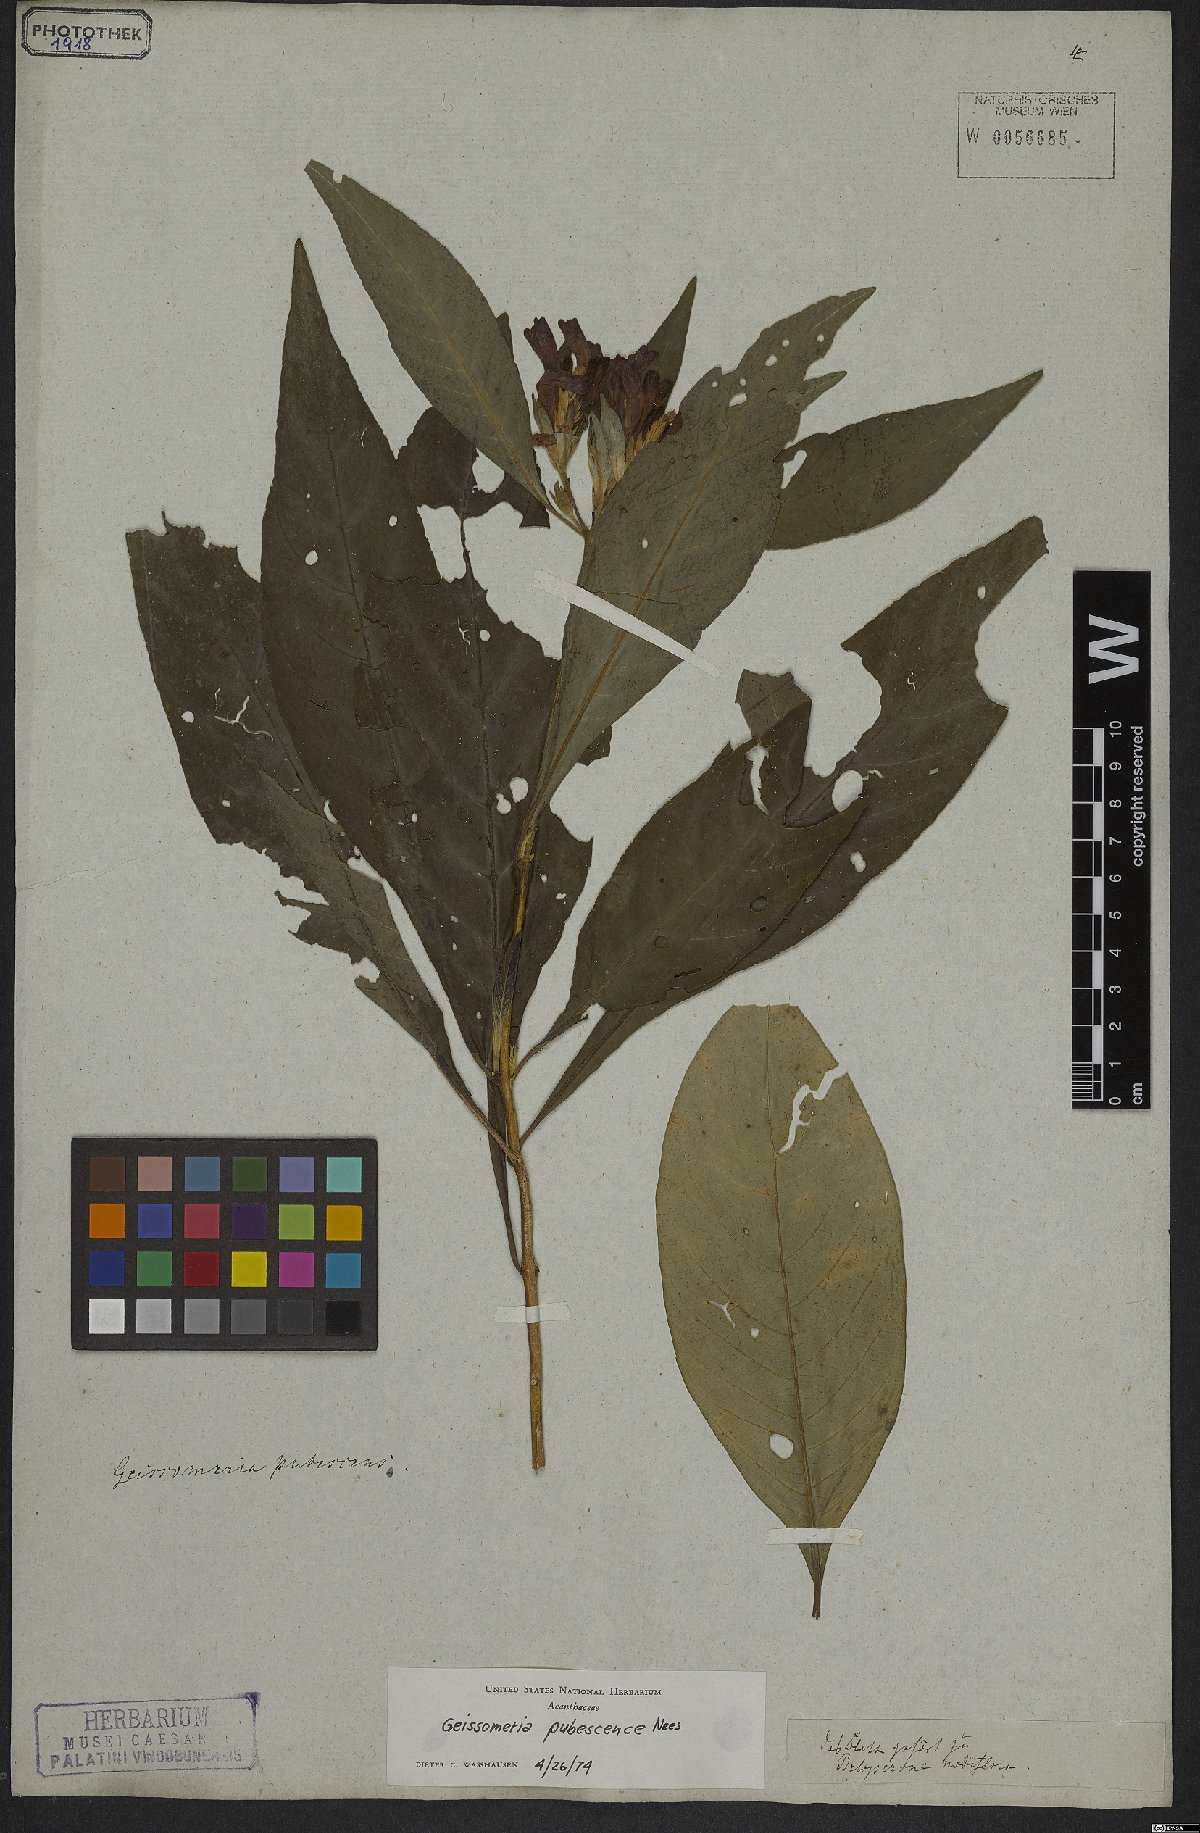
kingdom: Plantae
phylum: Tracheophyta
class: Magnoliopsida
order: Lamiales
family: Acanthaceae
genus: Aphelandra
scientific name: Aphelandra longiflora
